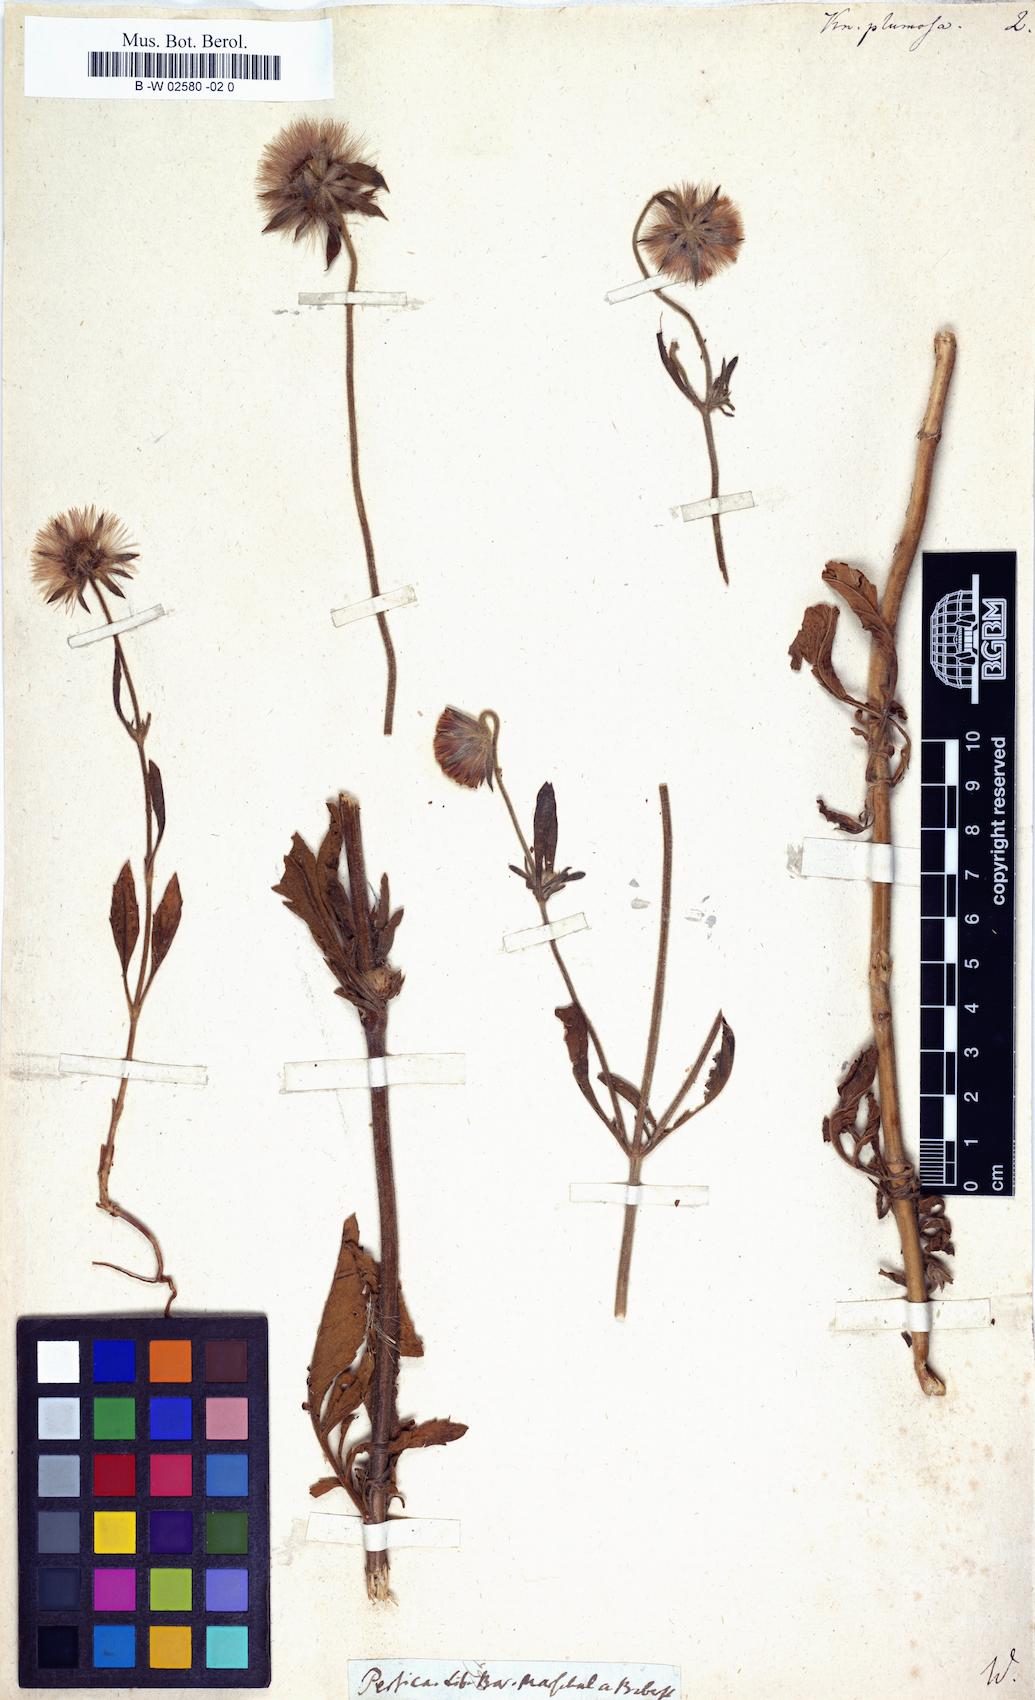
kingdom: Plantae
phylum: Tracheophyta
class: Magnoliopsida
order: Dipsacales
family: Caprifoliaceae
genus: Pterocephalus
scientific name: Pterocephalus plumosus
